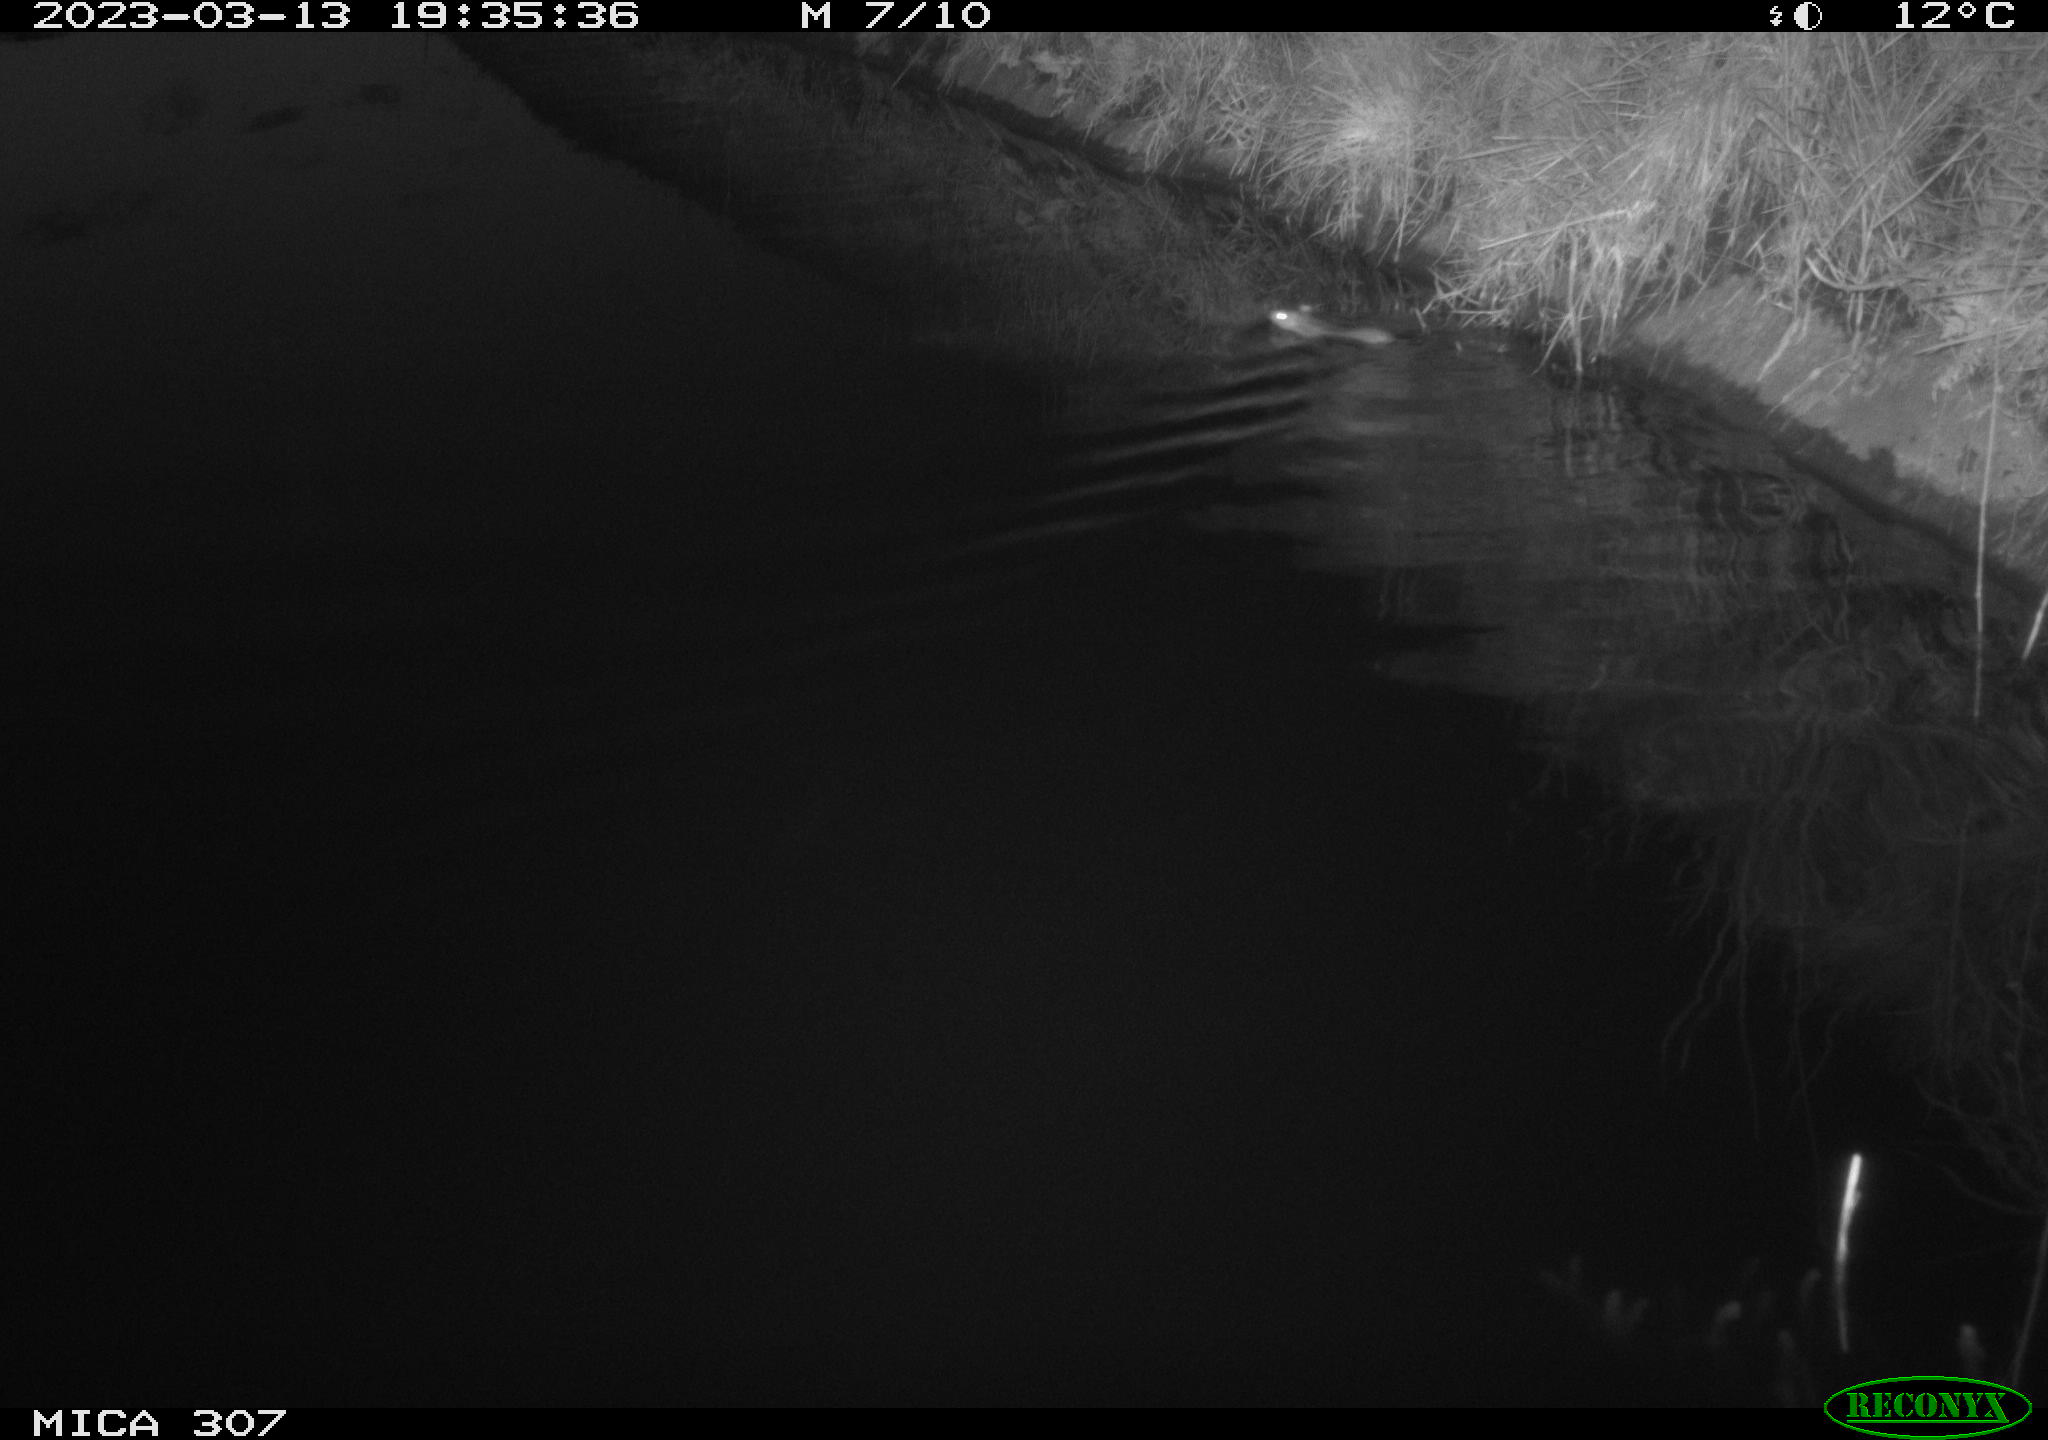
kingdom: Animalia
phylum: Chordata
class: Mammalia
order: Rodentia
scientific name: Rodentia
